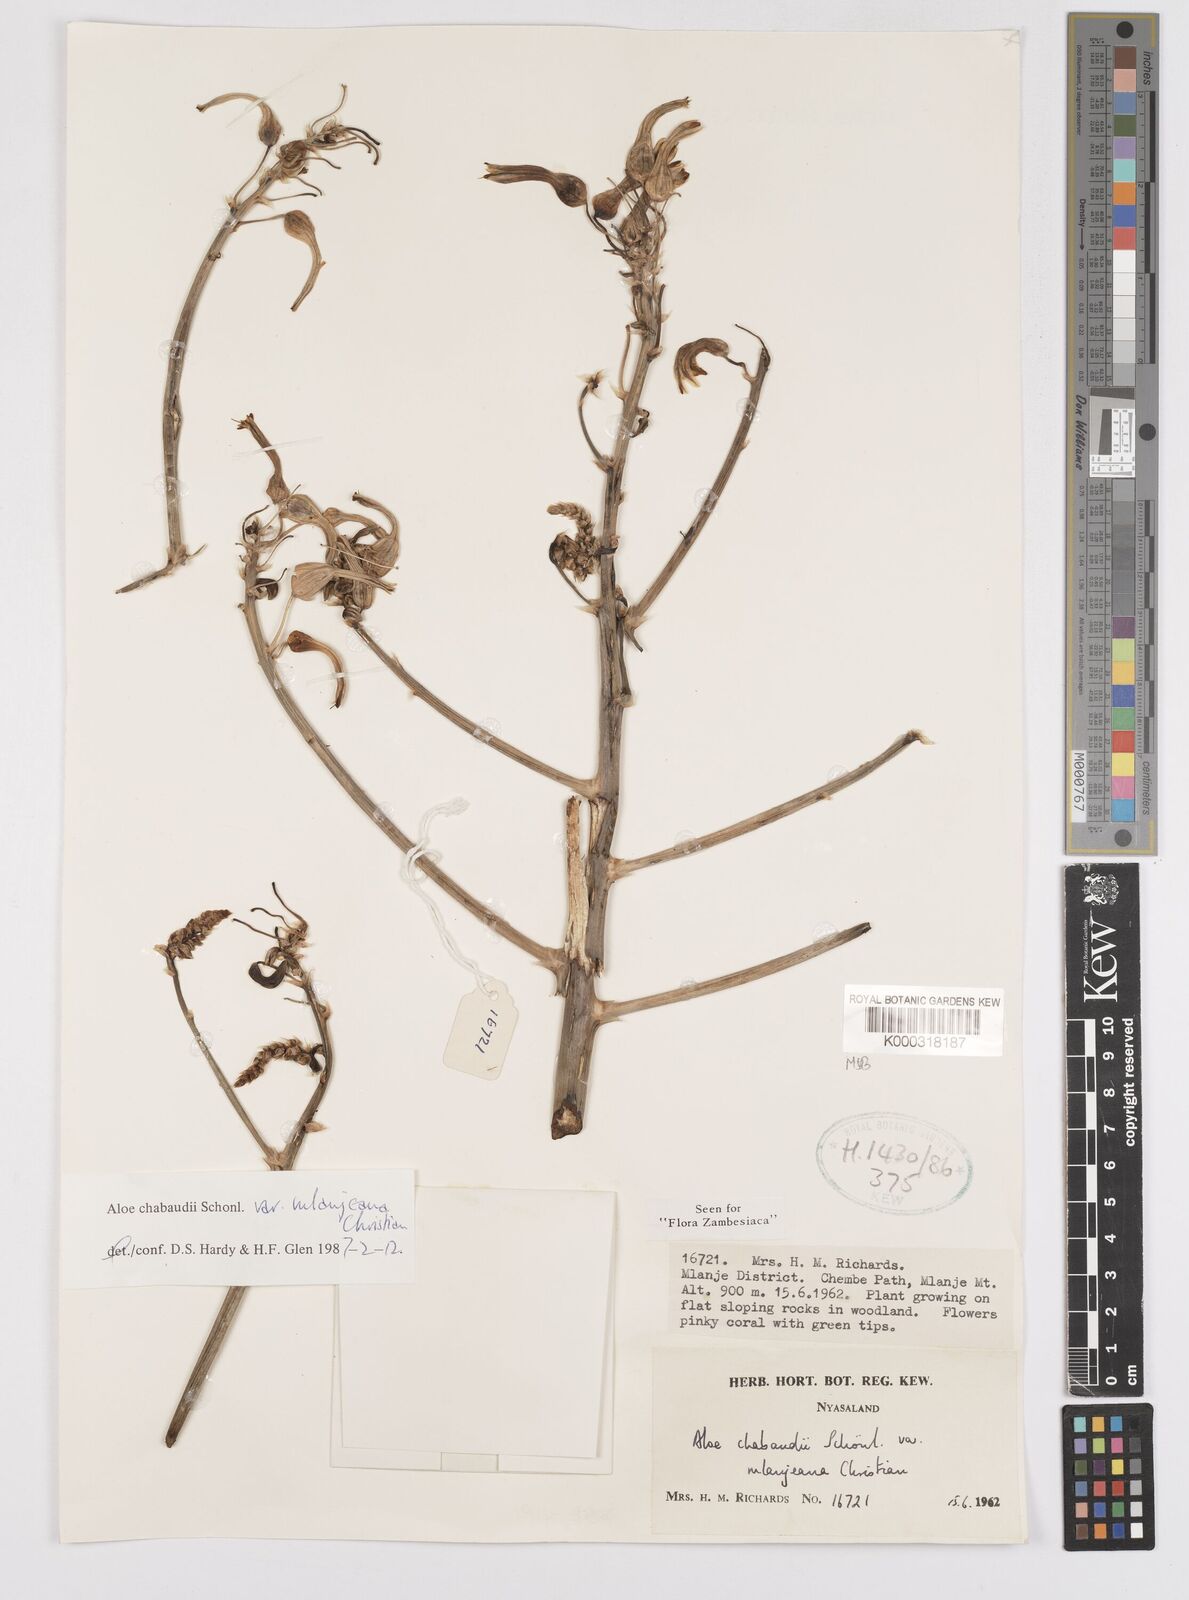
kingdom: Plantae
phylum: Tracheophyta
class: Liliopsida
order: Asparagales
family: Asphodelaceae
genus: Aloe
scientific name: Aloe chabaudii
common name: Chabaud's aloe
